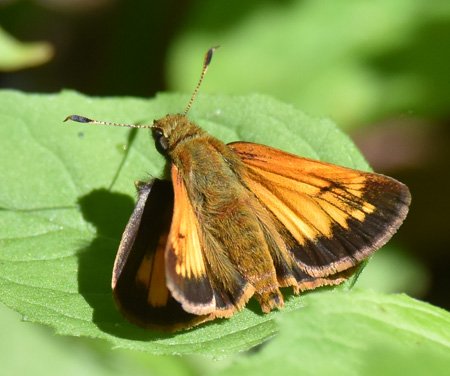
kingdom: Animalia
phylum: Arthropoda
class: Insecta
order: Lepidoptera
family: Hesperiidae
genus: Lon
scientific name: Lon hobomok
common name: Hobomok Skipper
